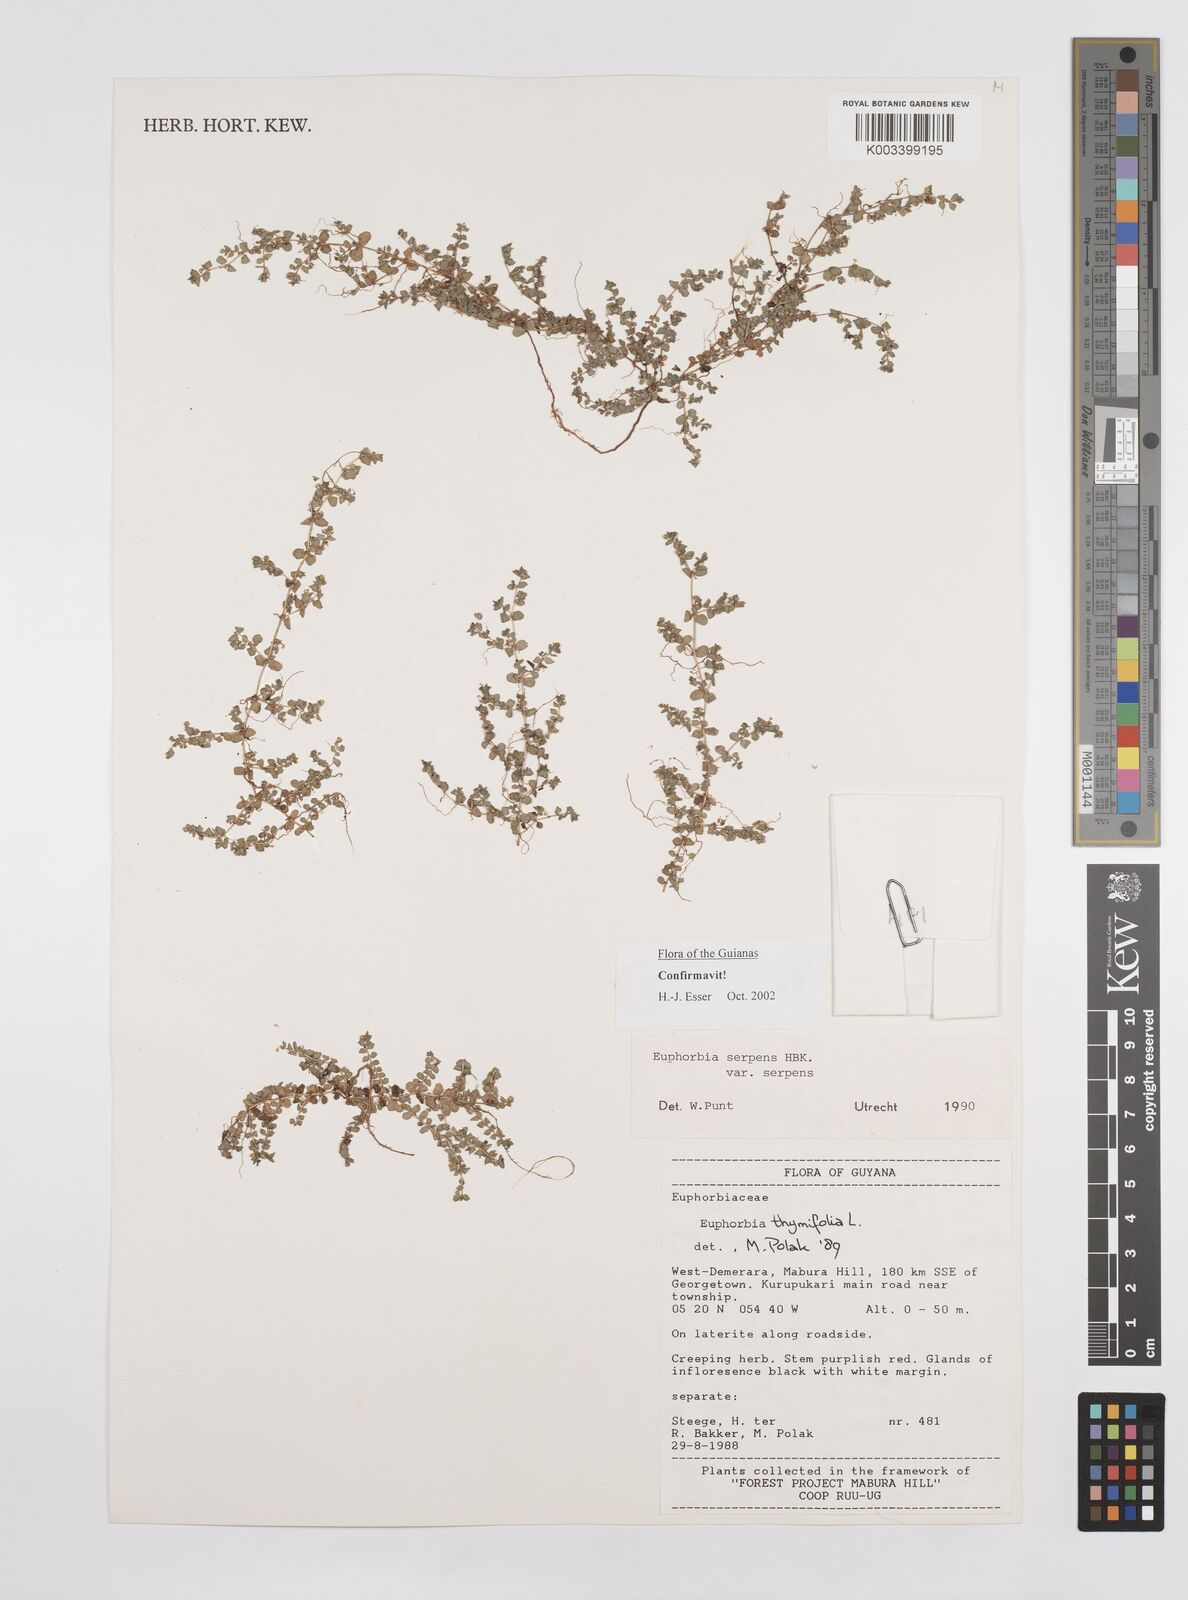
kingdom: Plantae
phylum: Tracheophyta
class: Magnoliopsida
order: Malpighiales
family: Euphorbiaceae
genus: Euphorbia
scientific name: Euphorbia serpens
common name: Matted sandmat
